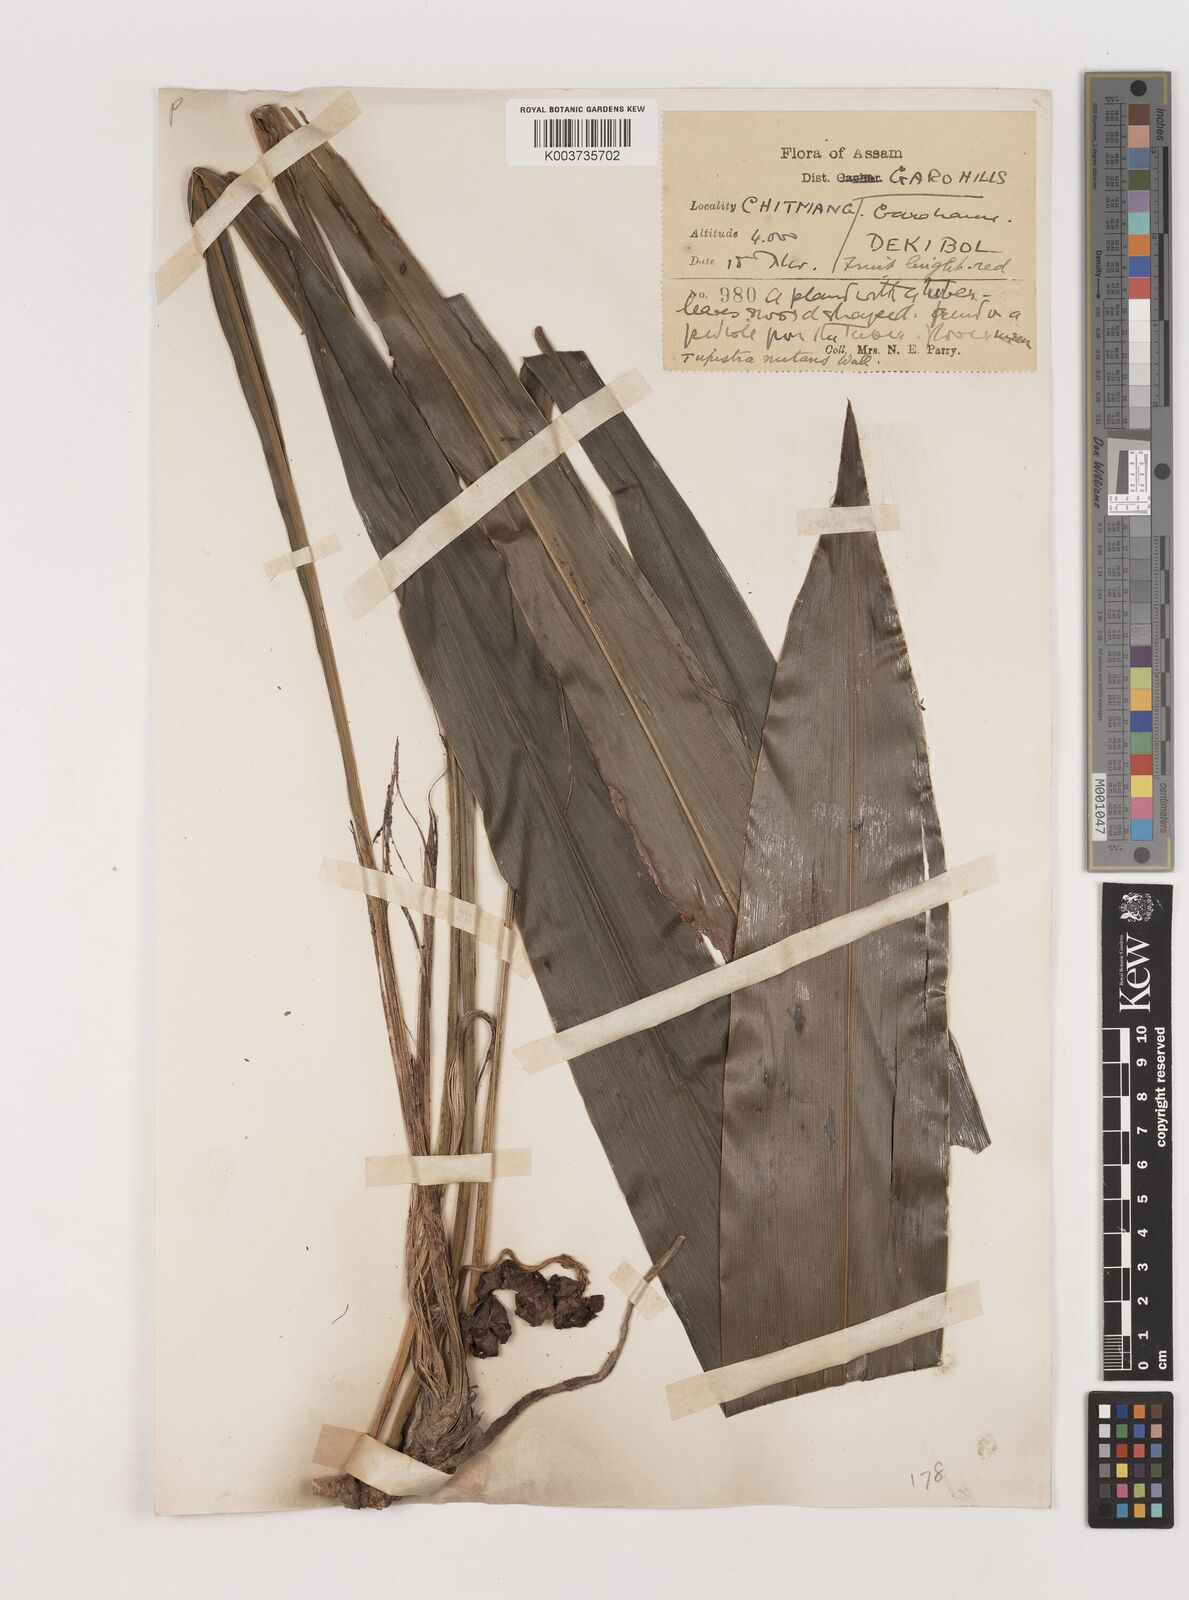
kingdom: Plantae
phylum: Tracheophyta
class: Liliopsida
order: Asparagales
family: Asparagaceae
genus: Tupistra
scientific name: Tupistra nutans
